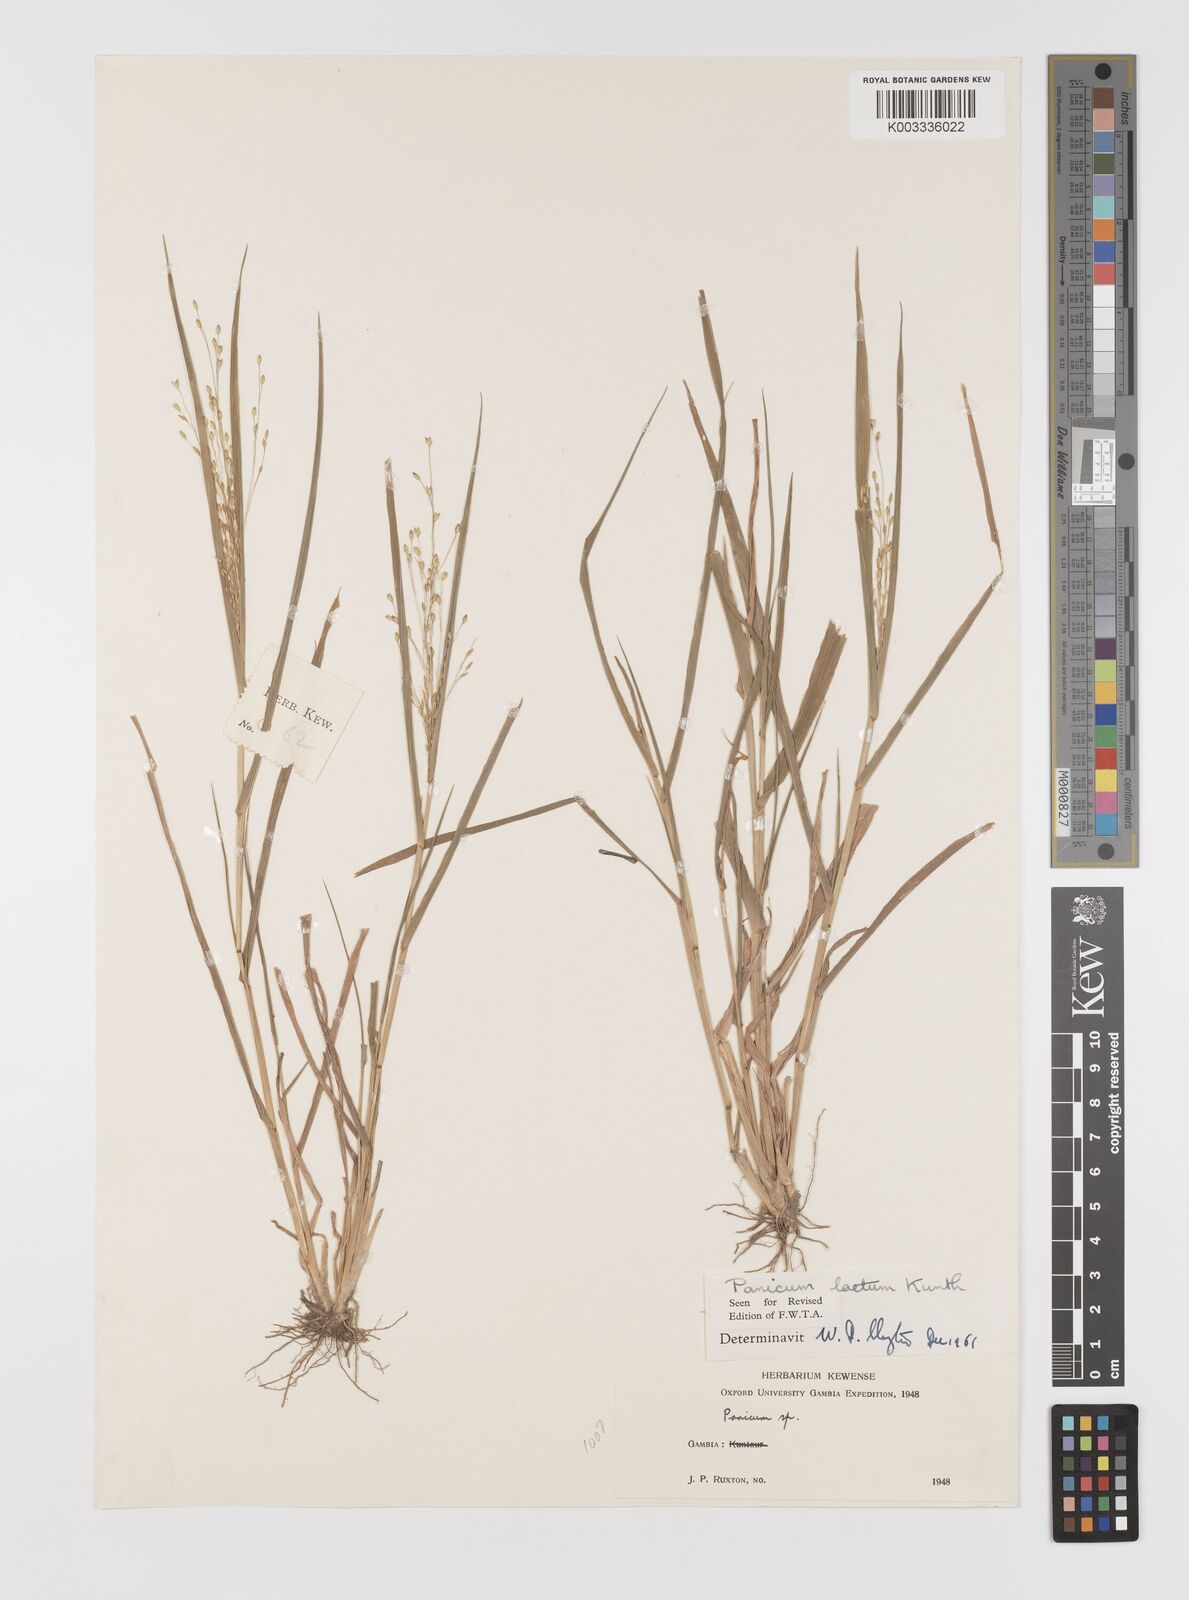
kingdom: Plantae
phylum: Tracheophyta
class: Liliopsida
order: Poales
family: Poaceae
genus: Panicum
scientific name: Panicum laetum
